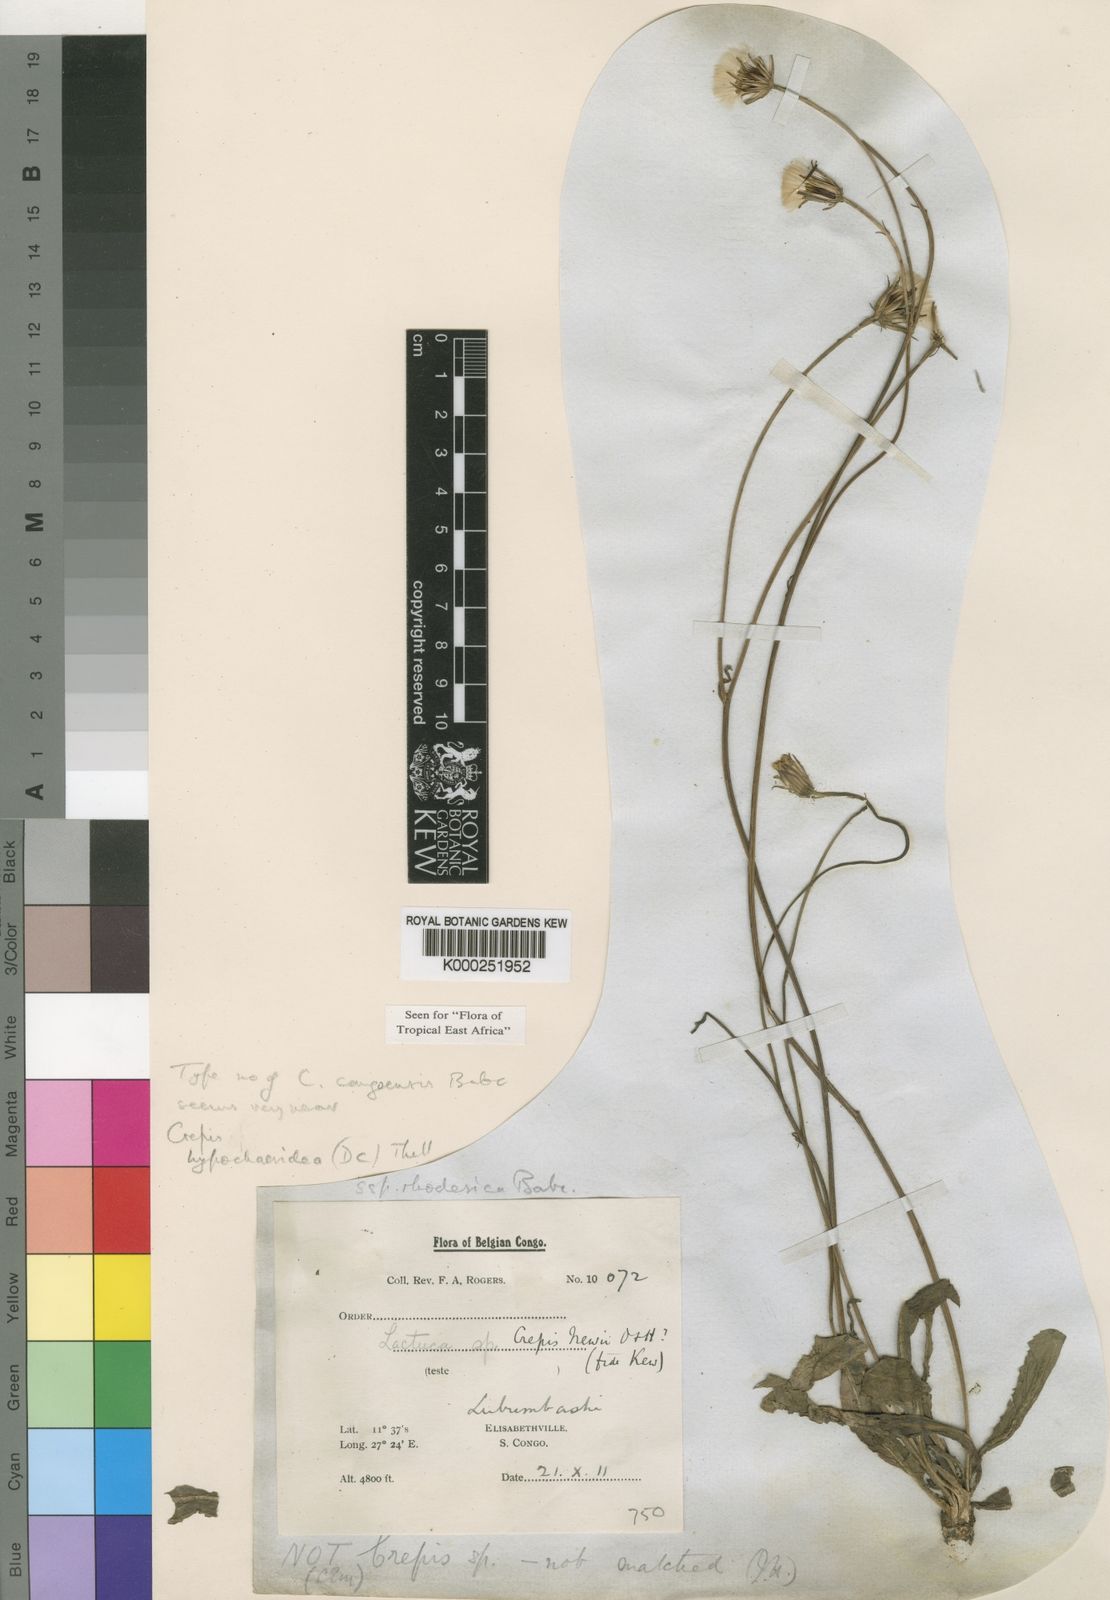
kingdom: Plantae
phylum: Tracheophyta
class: Magnoliopsida
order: Asterales
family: Asteraceae
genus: Crepis
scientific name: Crepis
